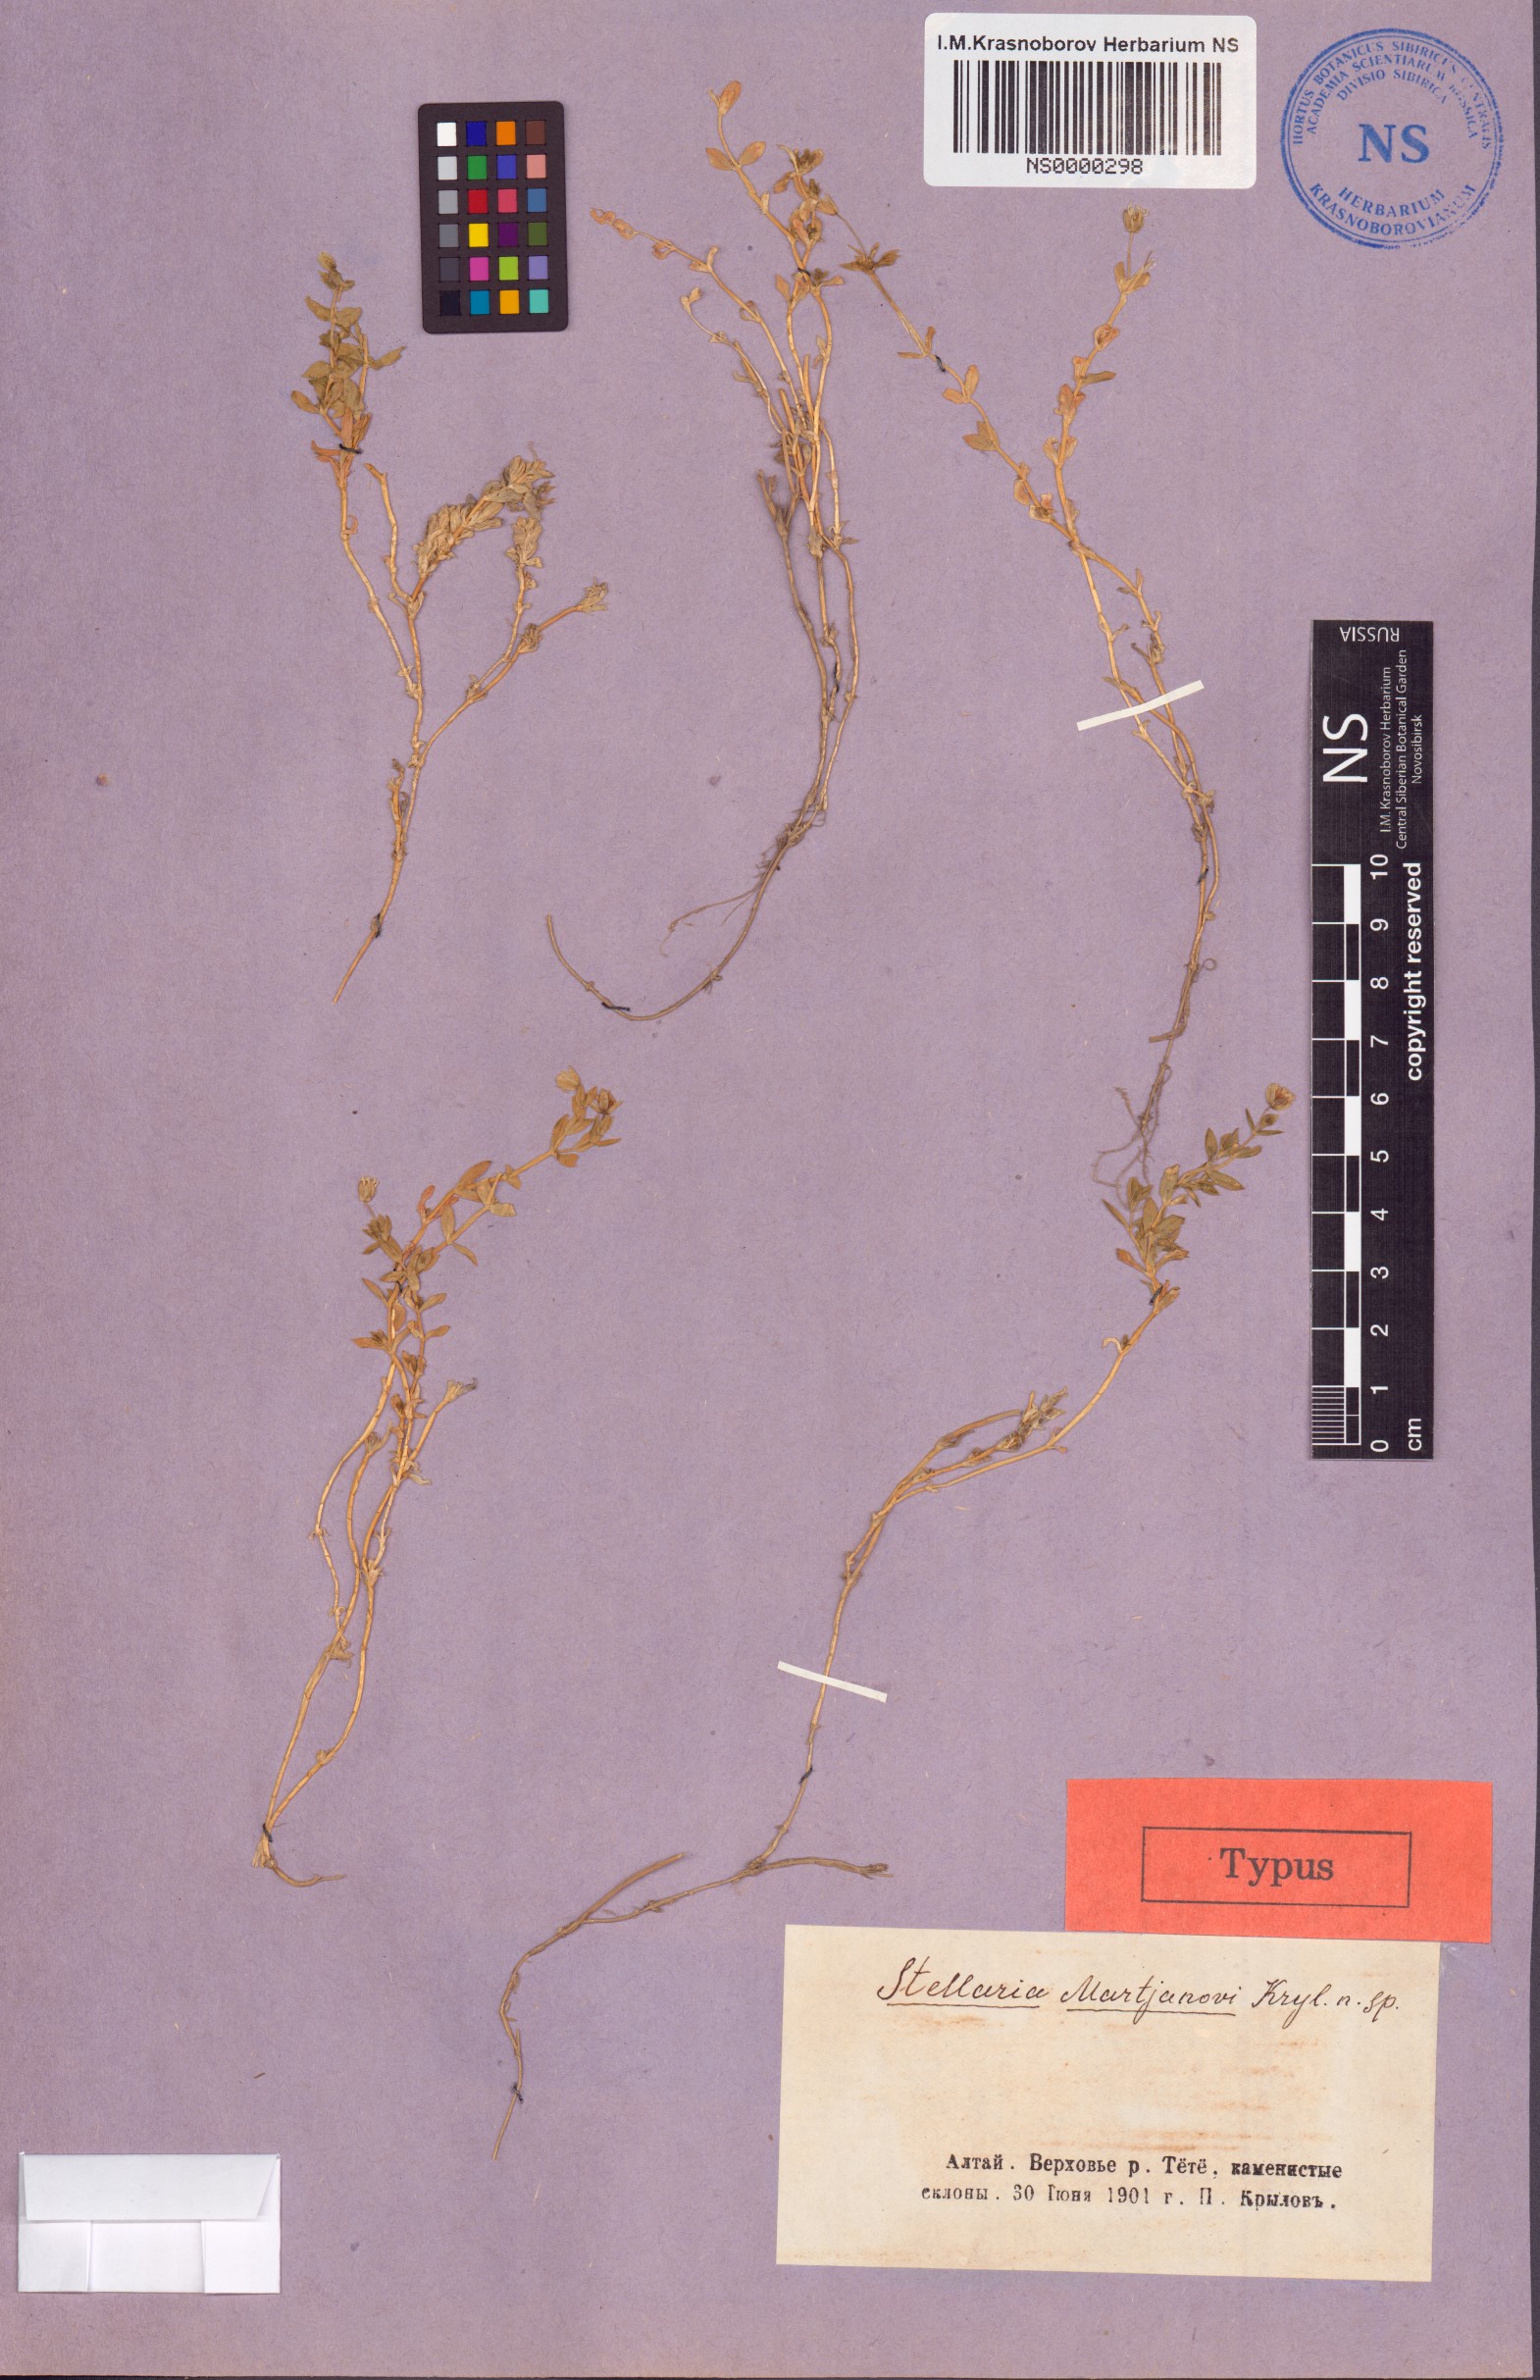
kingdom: Plantae
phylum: Tracheophyta
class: Magnoliopsida
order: Caryophyllales
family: Caryophyllaceae
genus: Mesostemma
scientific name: Mesostemma martjanovii
